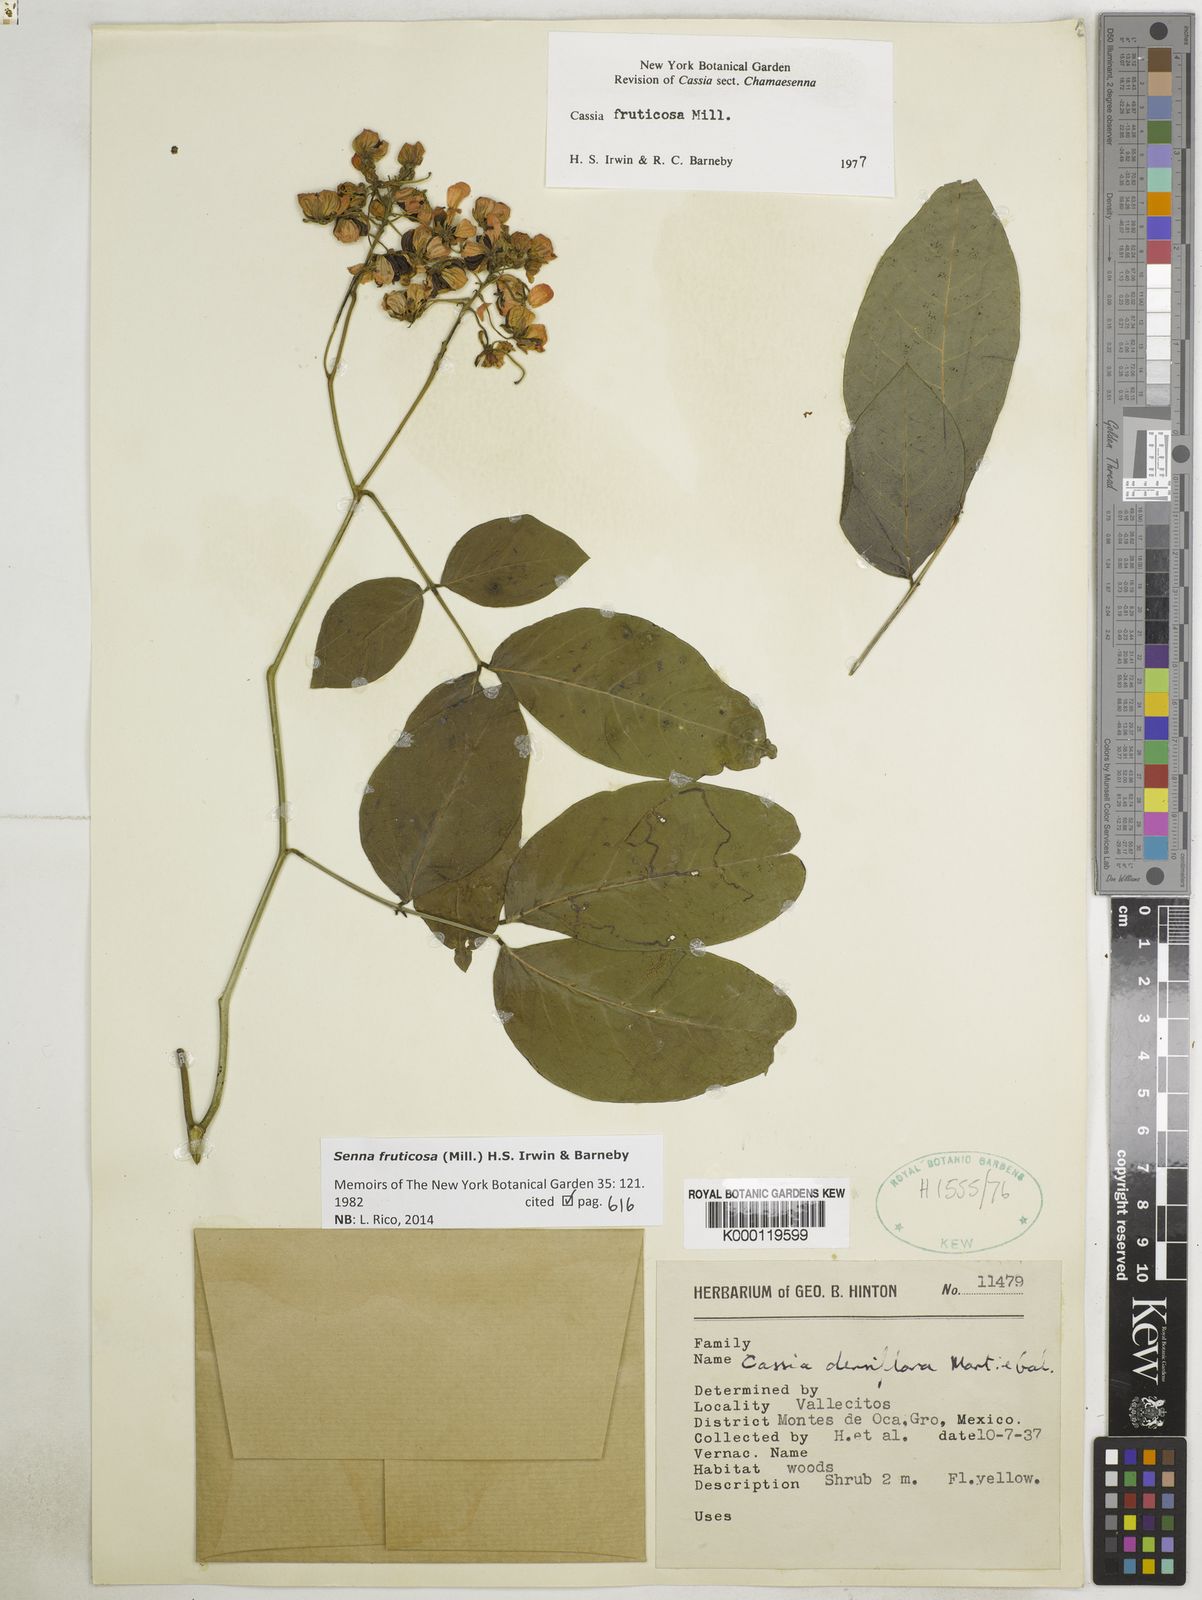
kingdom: Plantae
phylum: Tracheophyta
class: Magnoliopsida
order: Fabales
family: Fabaceae
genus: Senna
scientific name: Senna fruticosa
